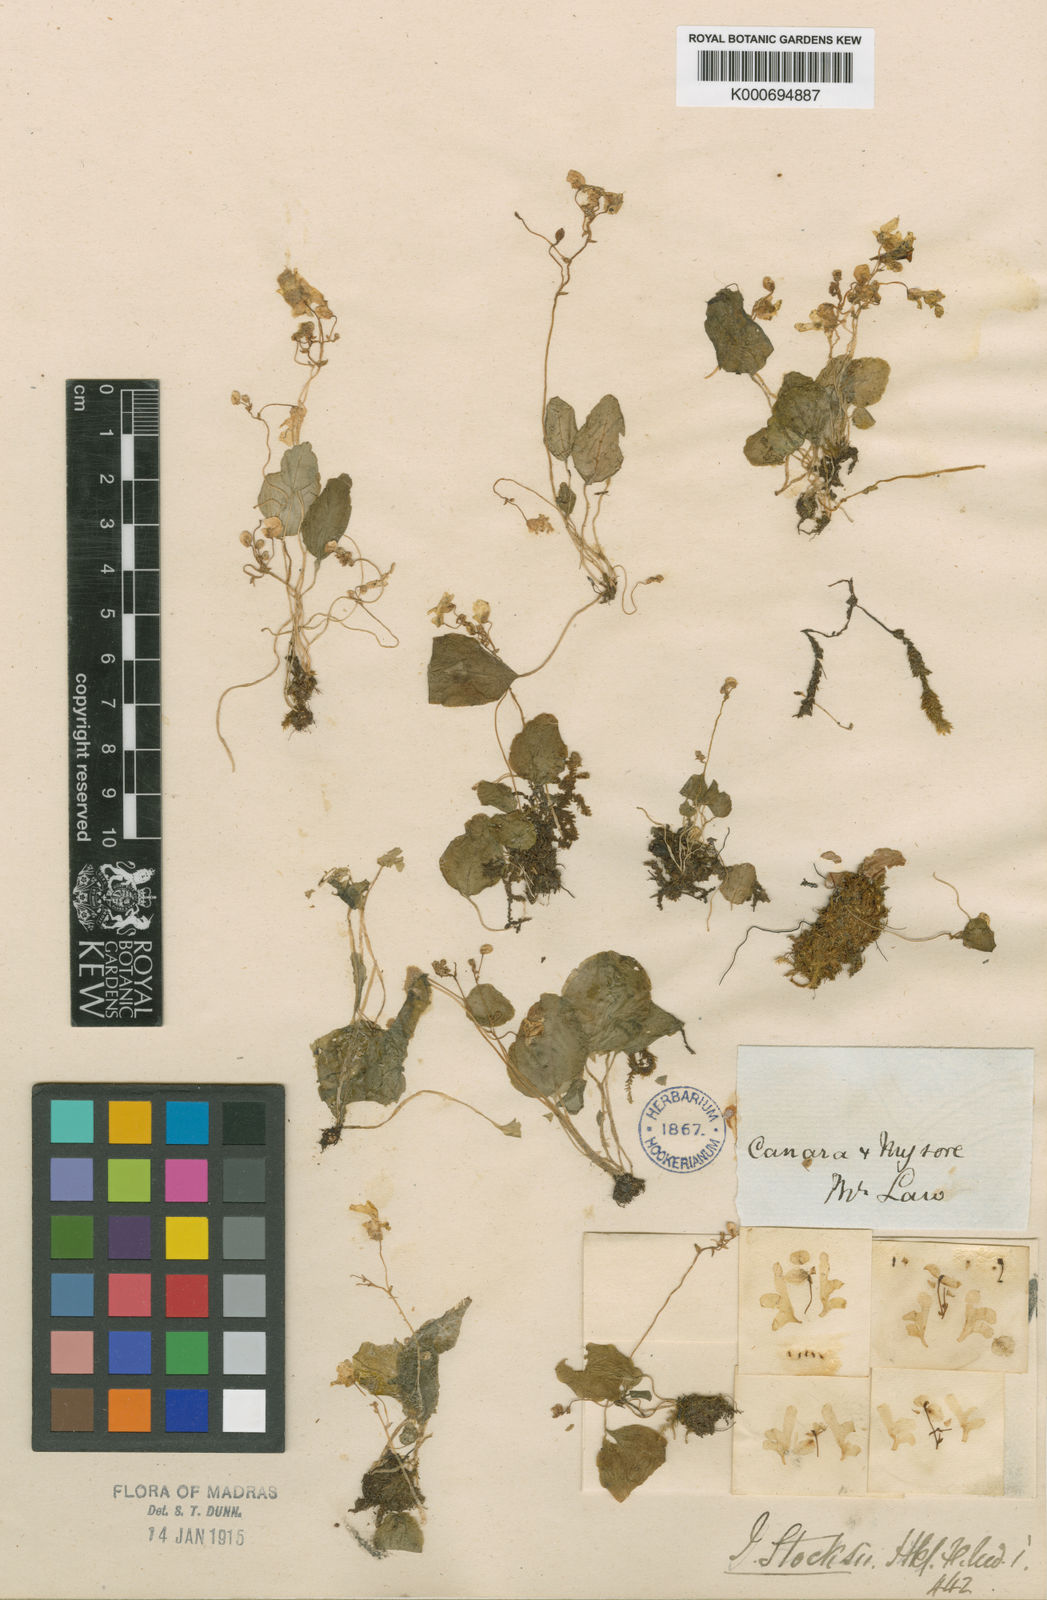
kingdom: Plantae
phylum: Tracheophyta
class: Magnoliopsida
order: Ericales
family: Balsaminaceae
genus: Impatiens
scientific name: Impatiens stocksii
